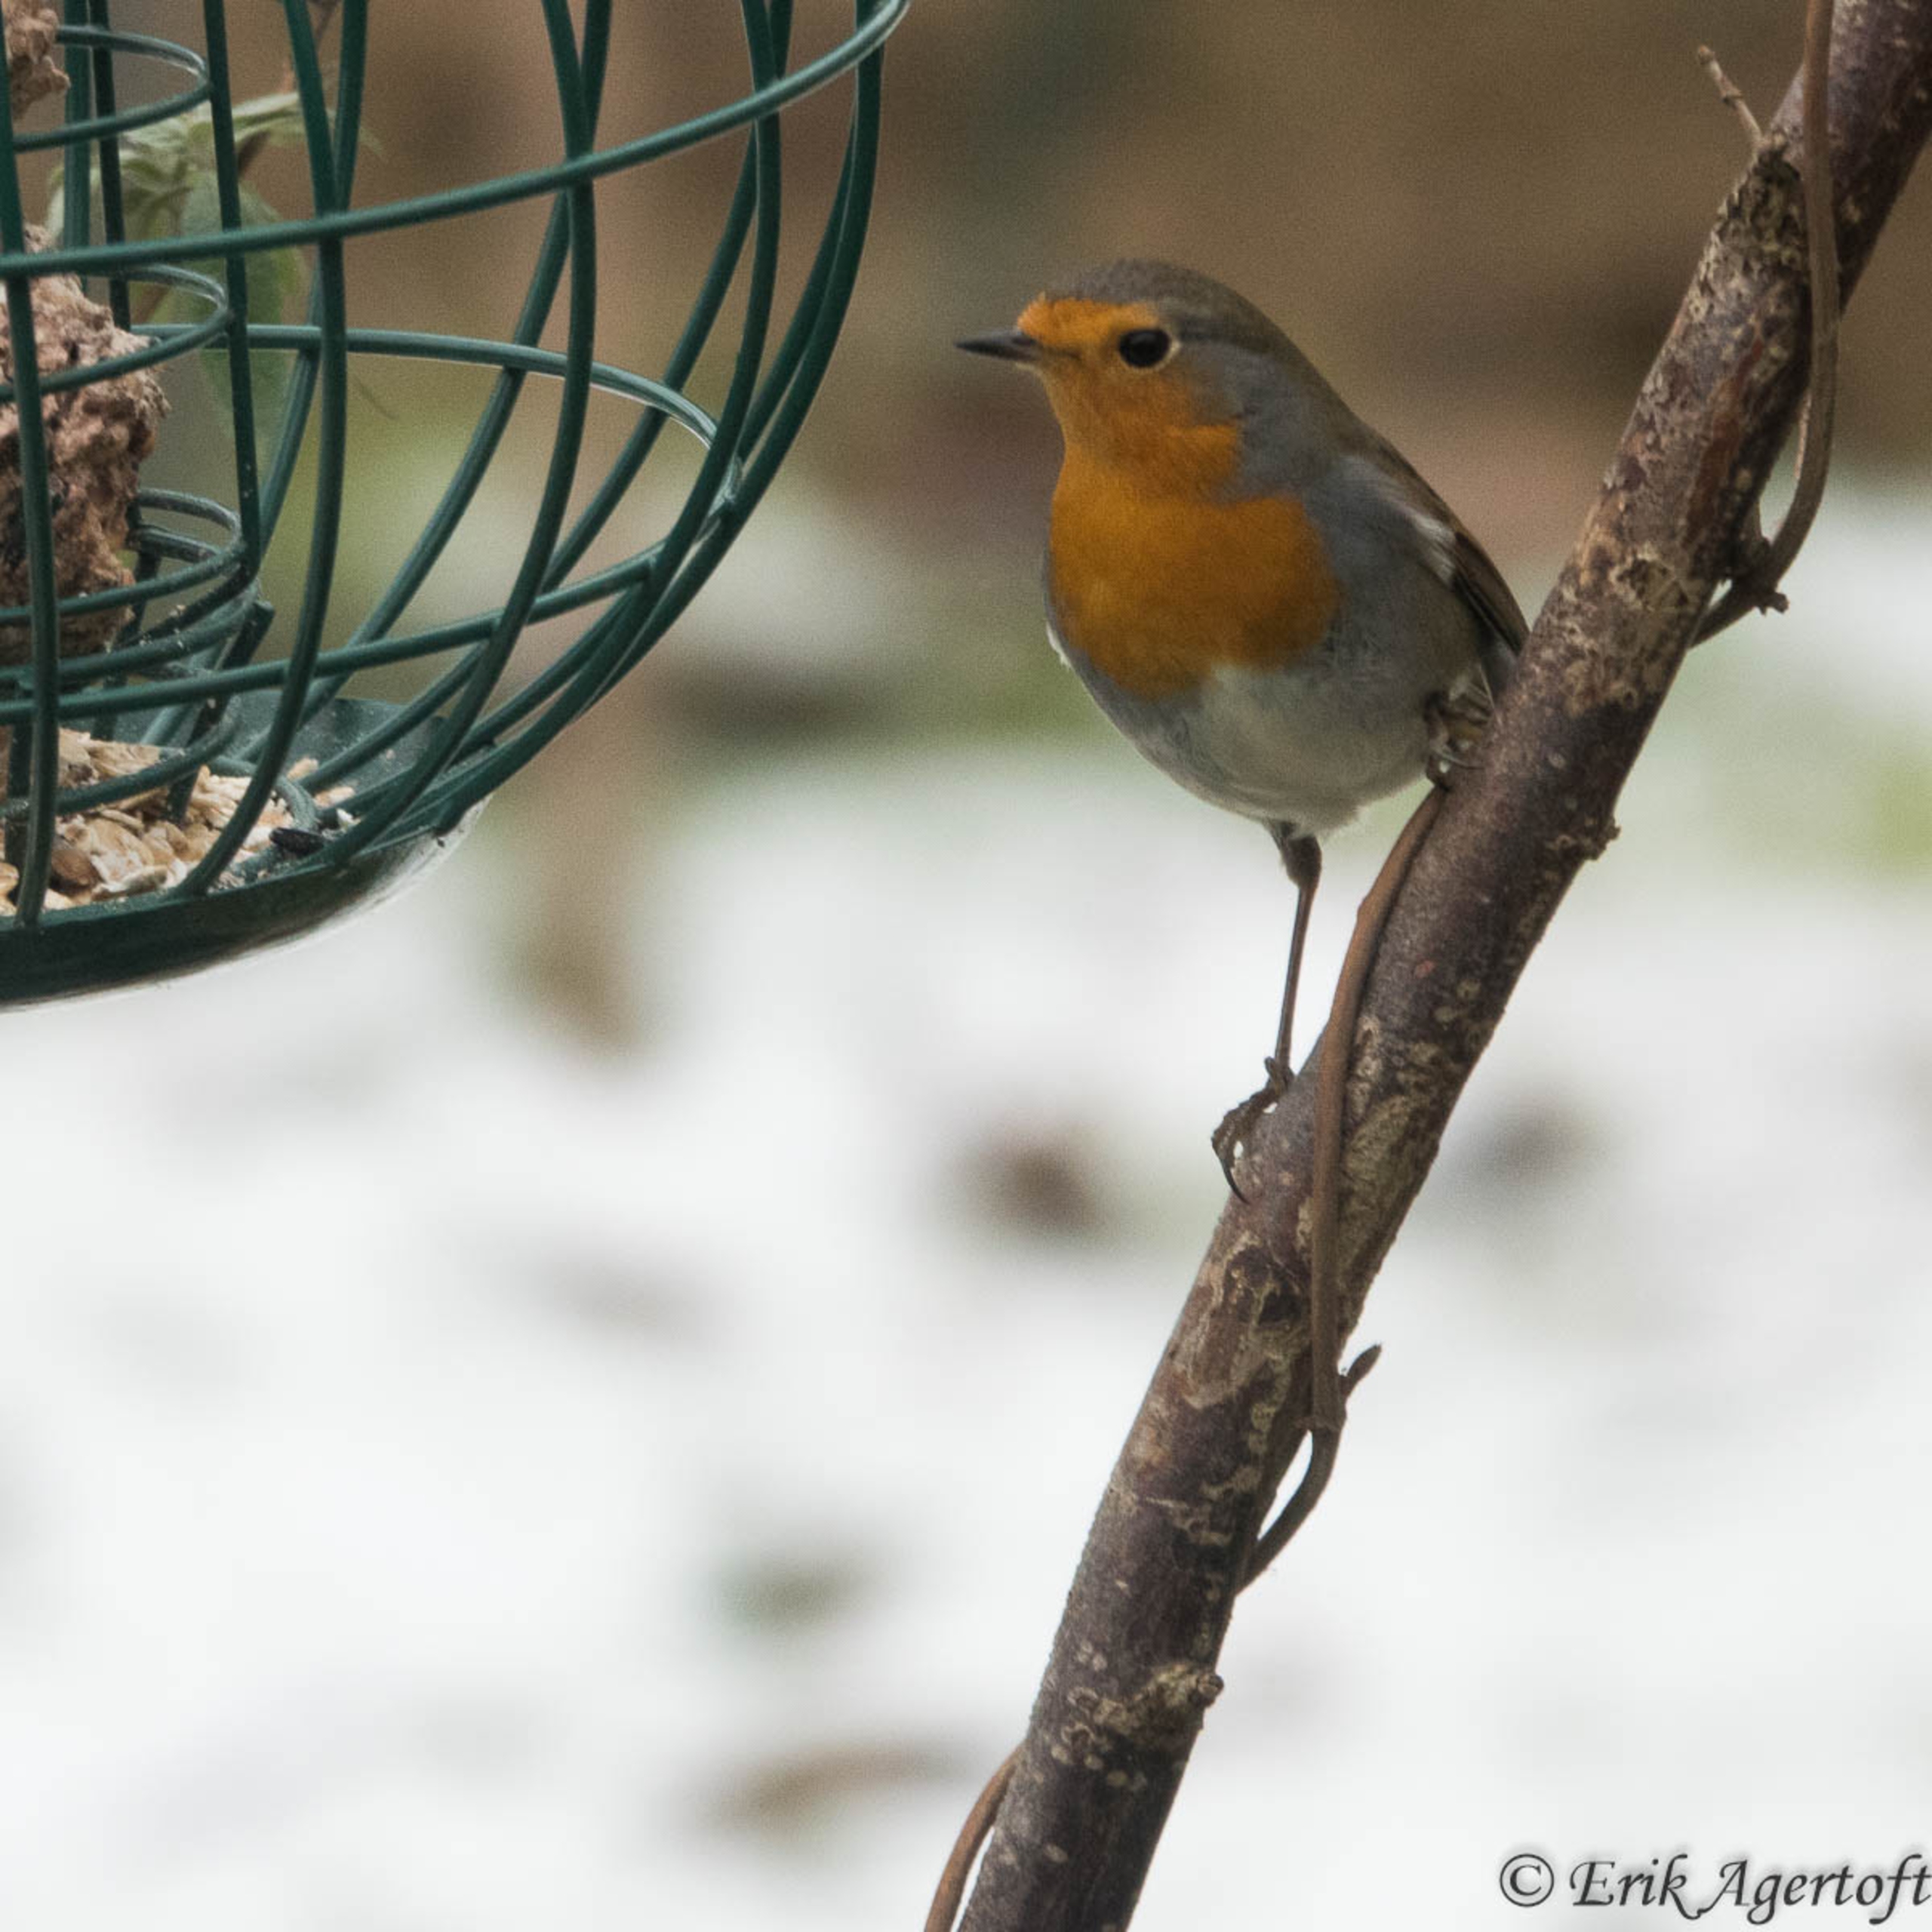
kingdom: Animalia
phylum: Chordata
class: Aves
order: Passeriformes
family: Muscicapidae
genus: Erithacus
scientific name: Erithacus rubecula
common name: Rødhals/rødkælk
